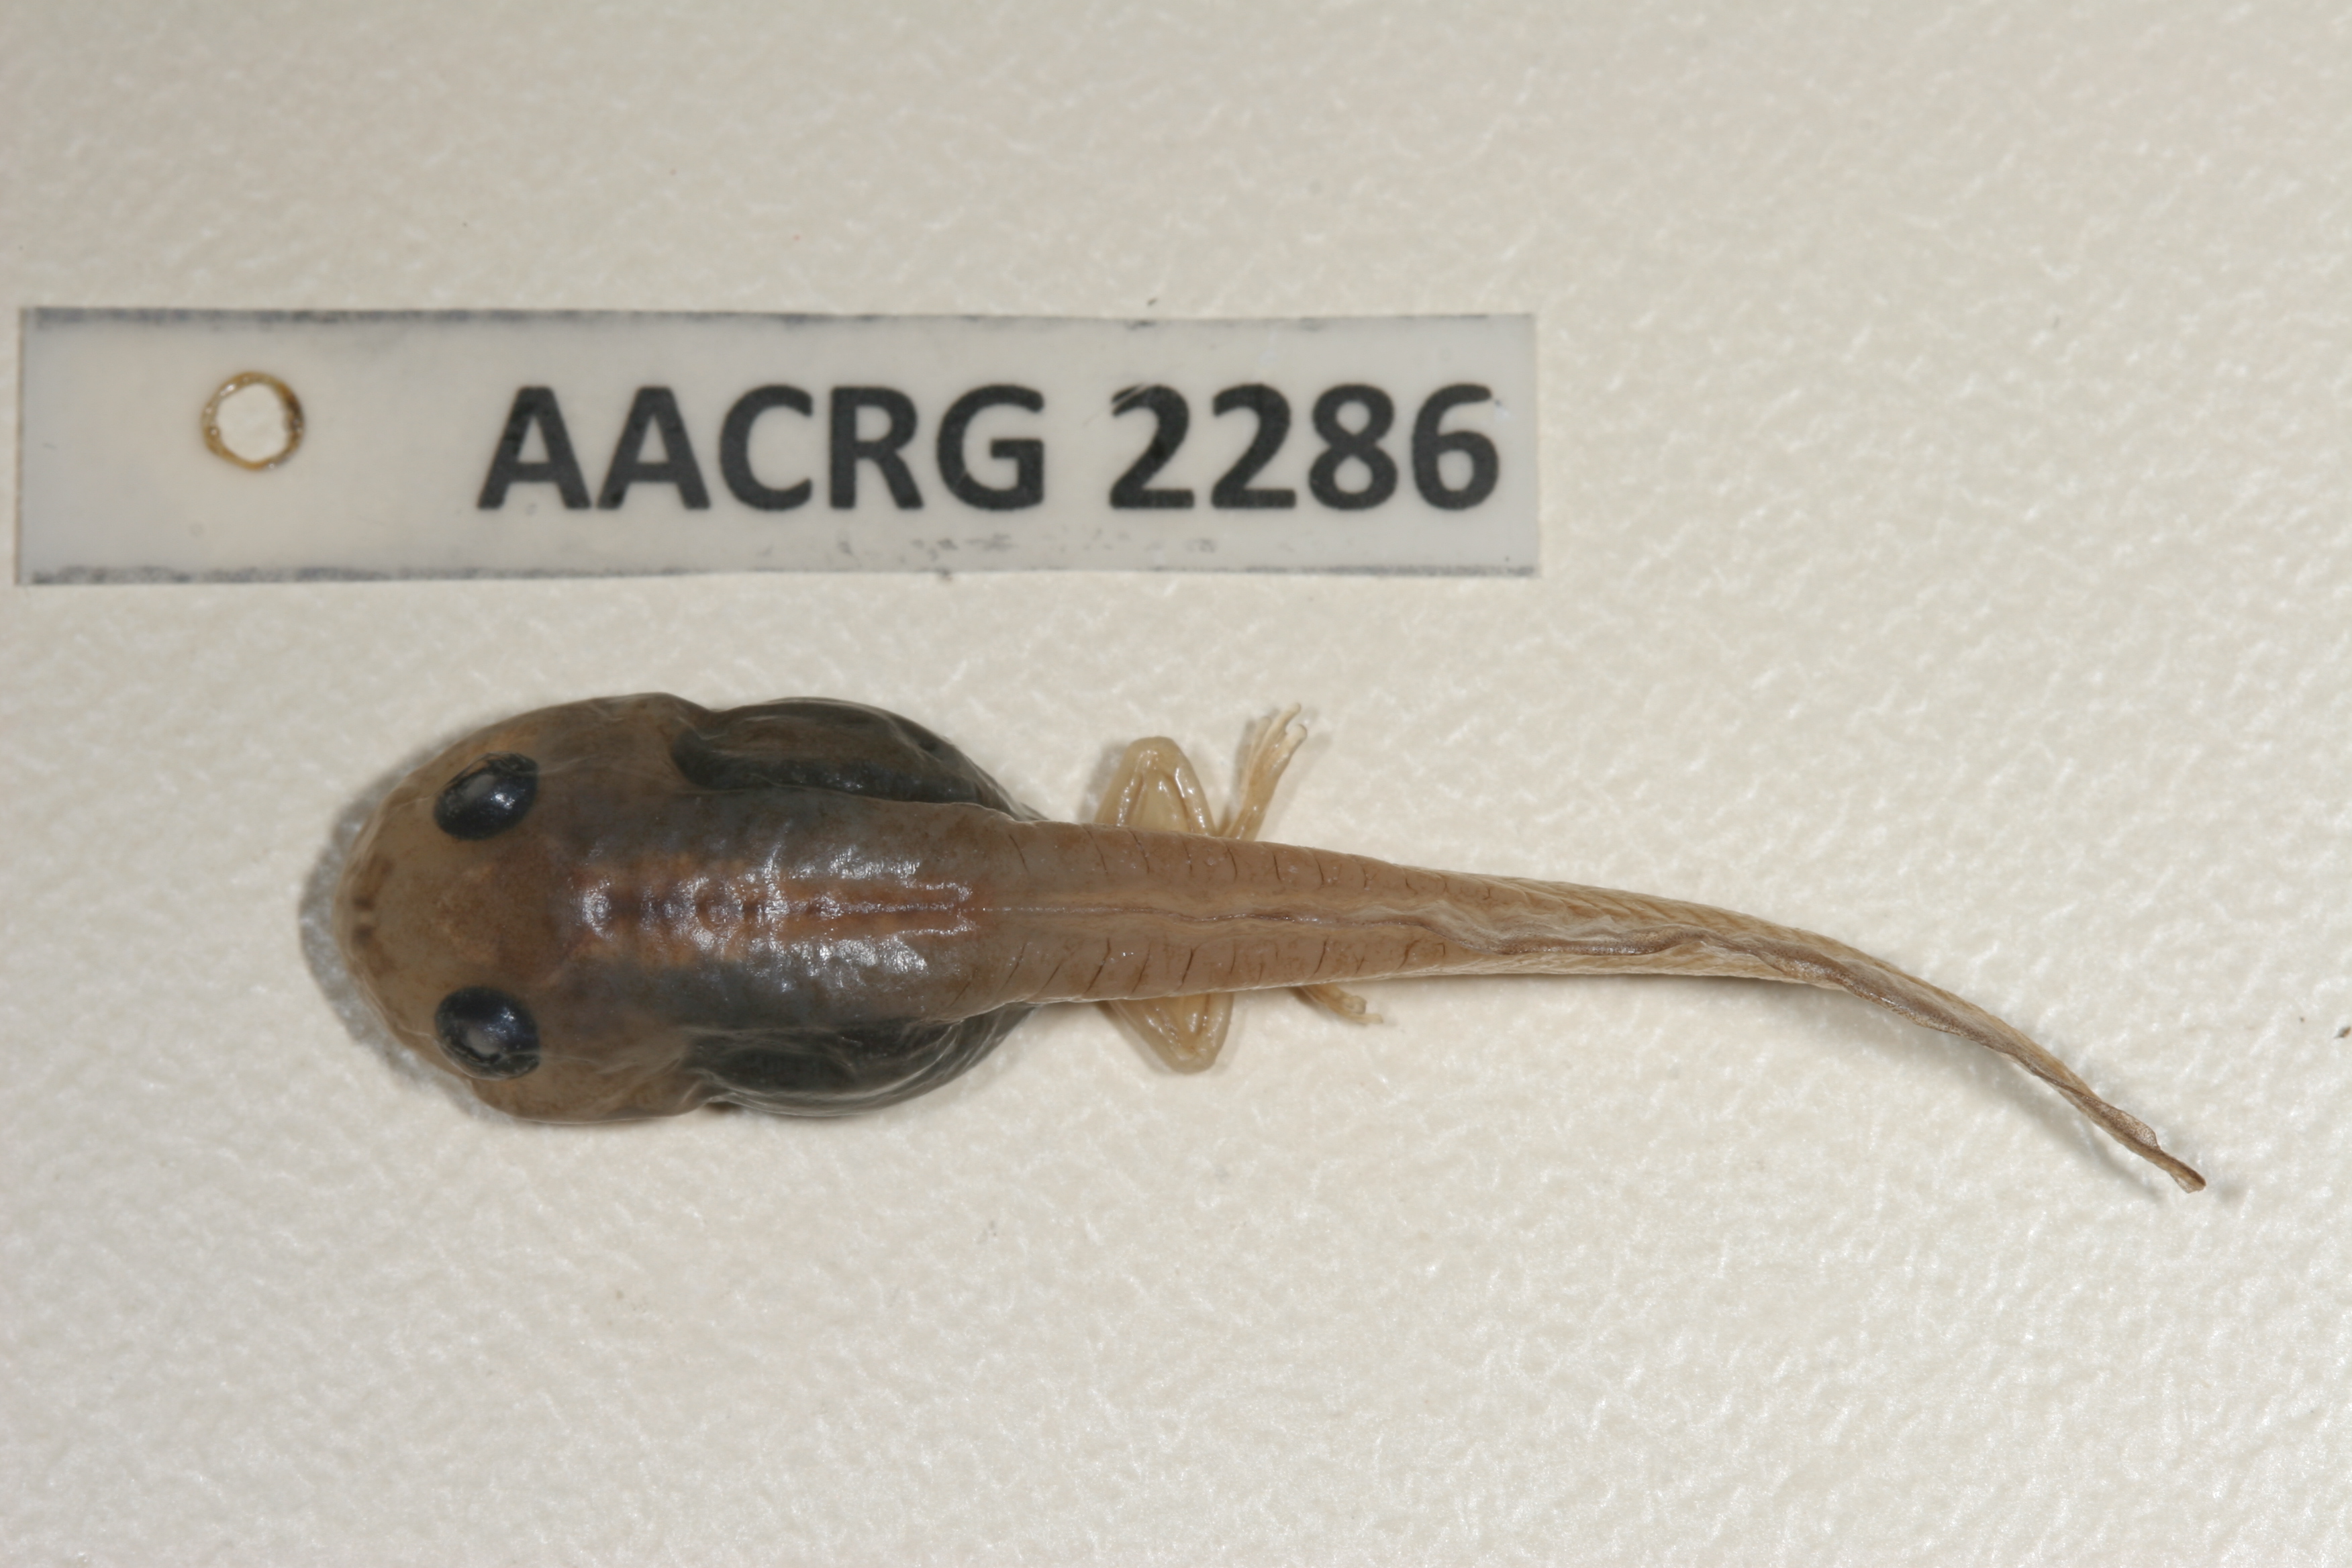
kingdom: Animalia
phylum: Chordata
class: Amphibia
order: Anura
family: Rhacophoridae
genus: Chiromantis
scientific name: Chiromantis xerampelina
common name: African gray treefrog
